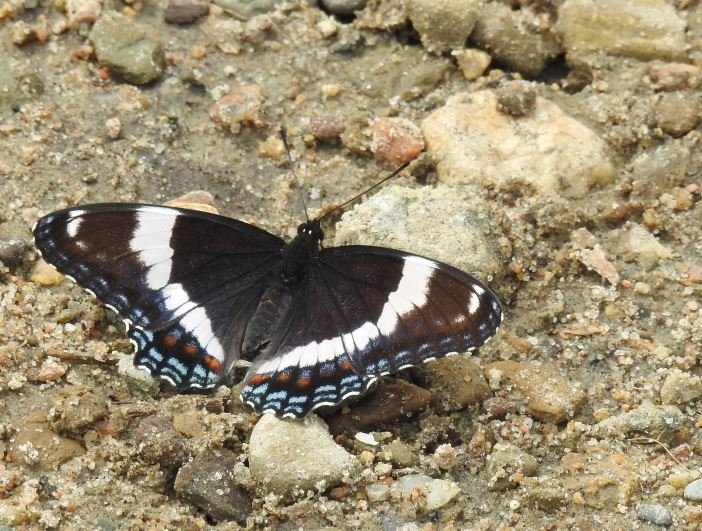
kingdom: Animalia
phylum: Arthropoda
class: Insecta
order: Lepidoptera
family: Nymphalidae
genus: Limenitis
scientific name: Limenitis arthemis
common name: Red-spotted Admiral
